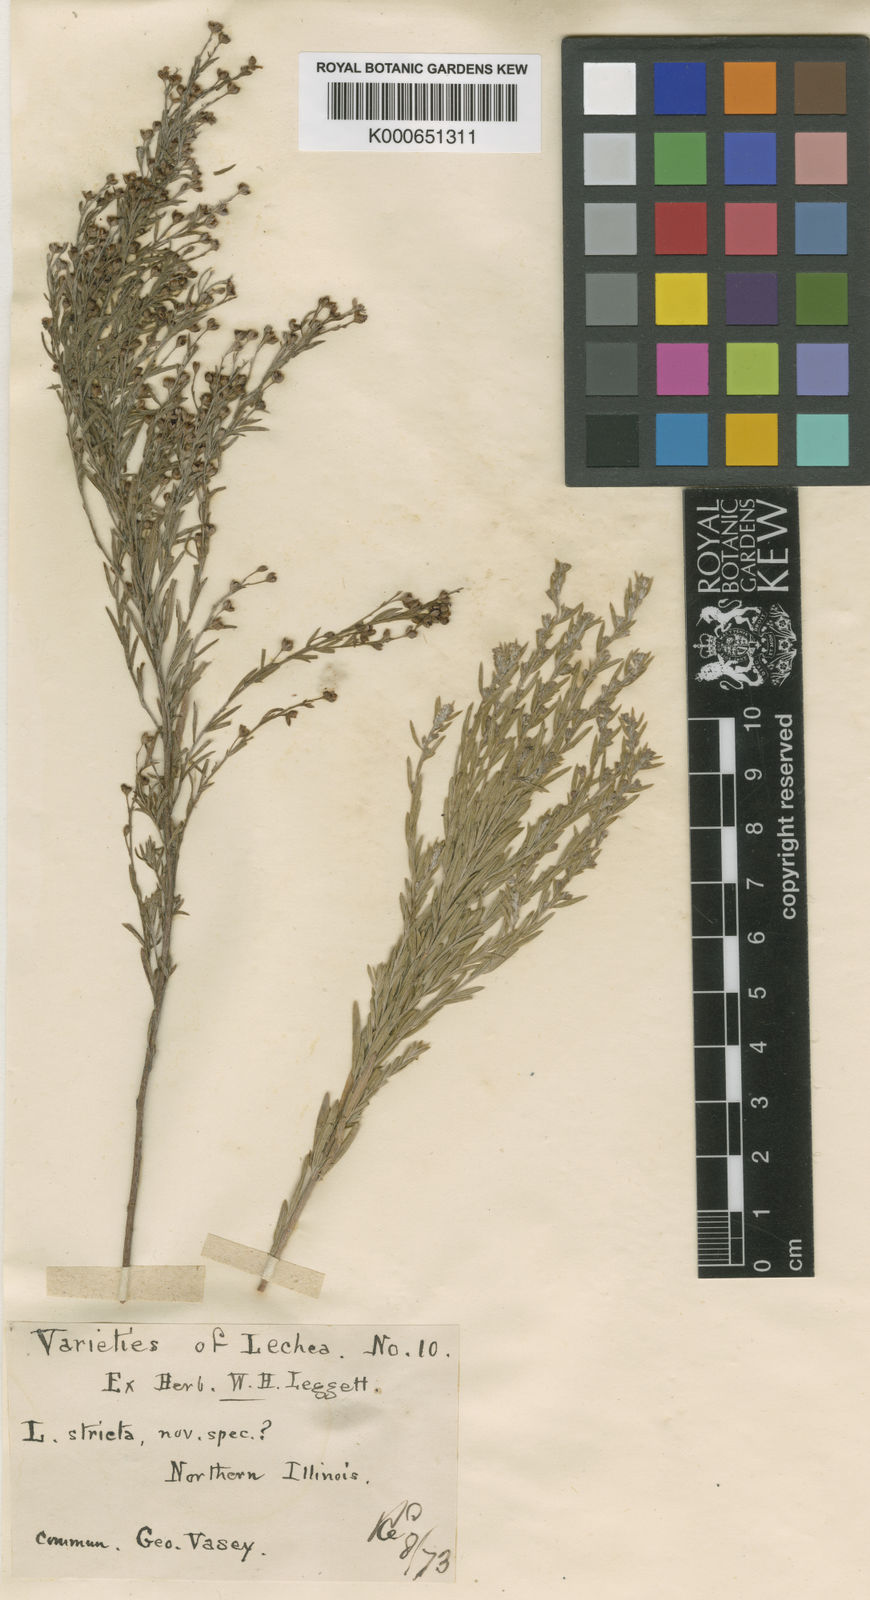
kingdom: Plantae
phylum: Tracheophyta
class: Magnoliopsida
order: Malvales
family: Cistaceae
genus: Lechea
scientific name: Lechea
